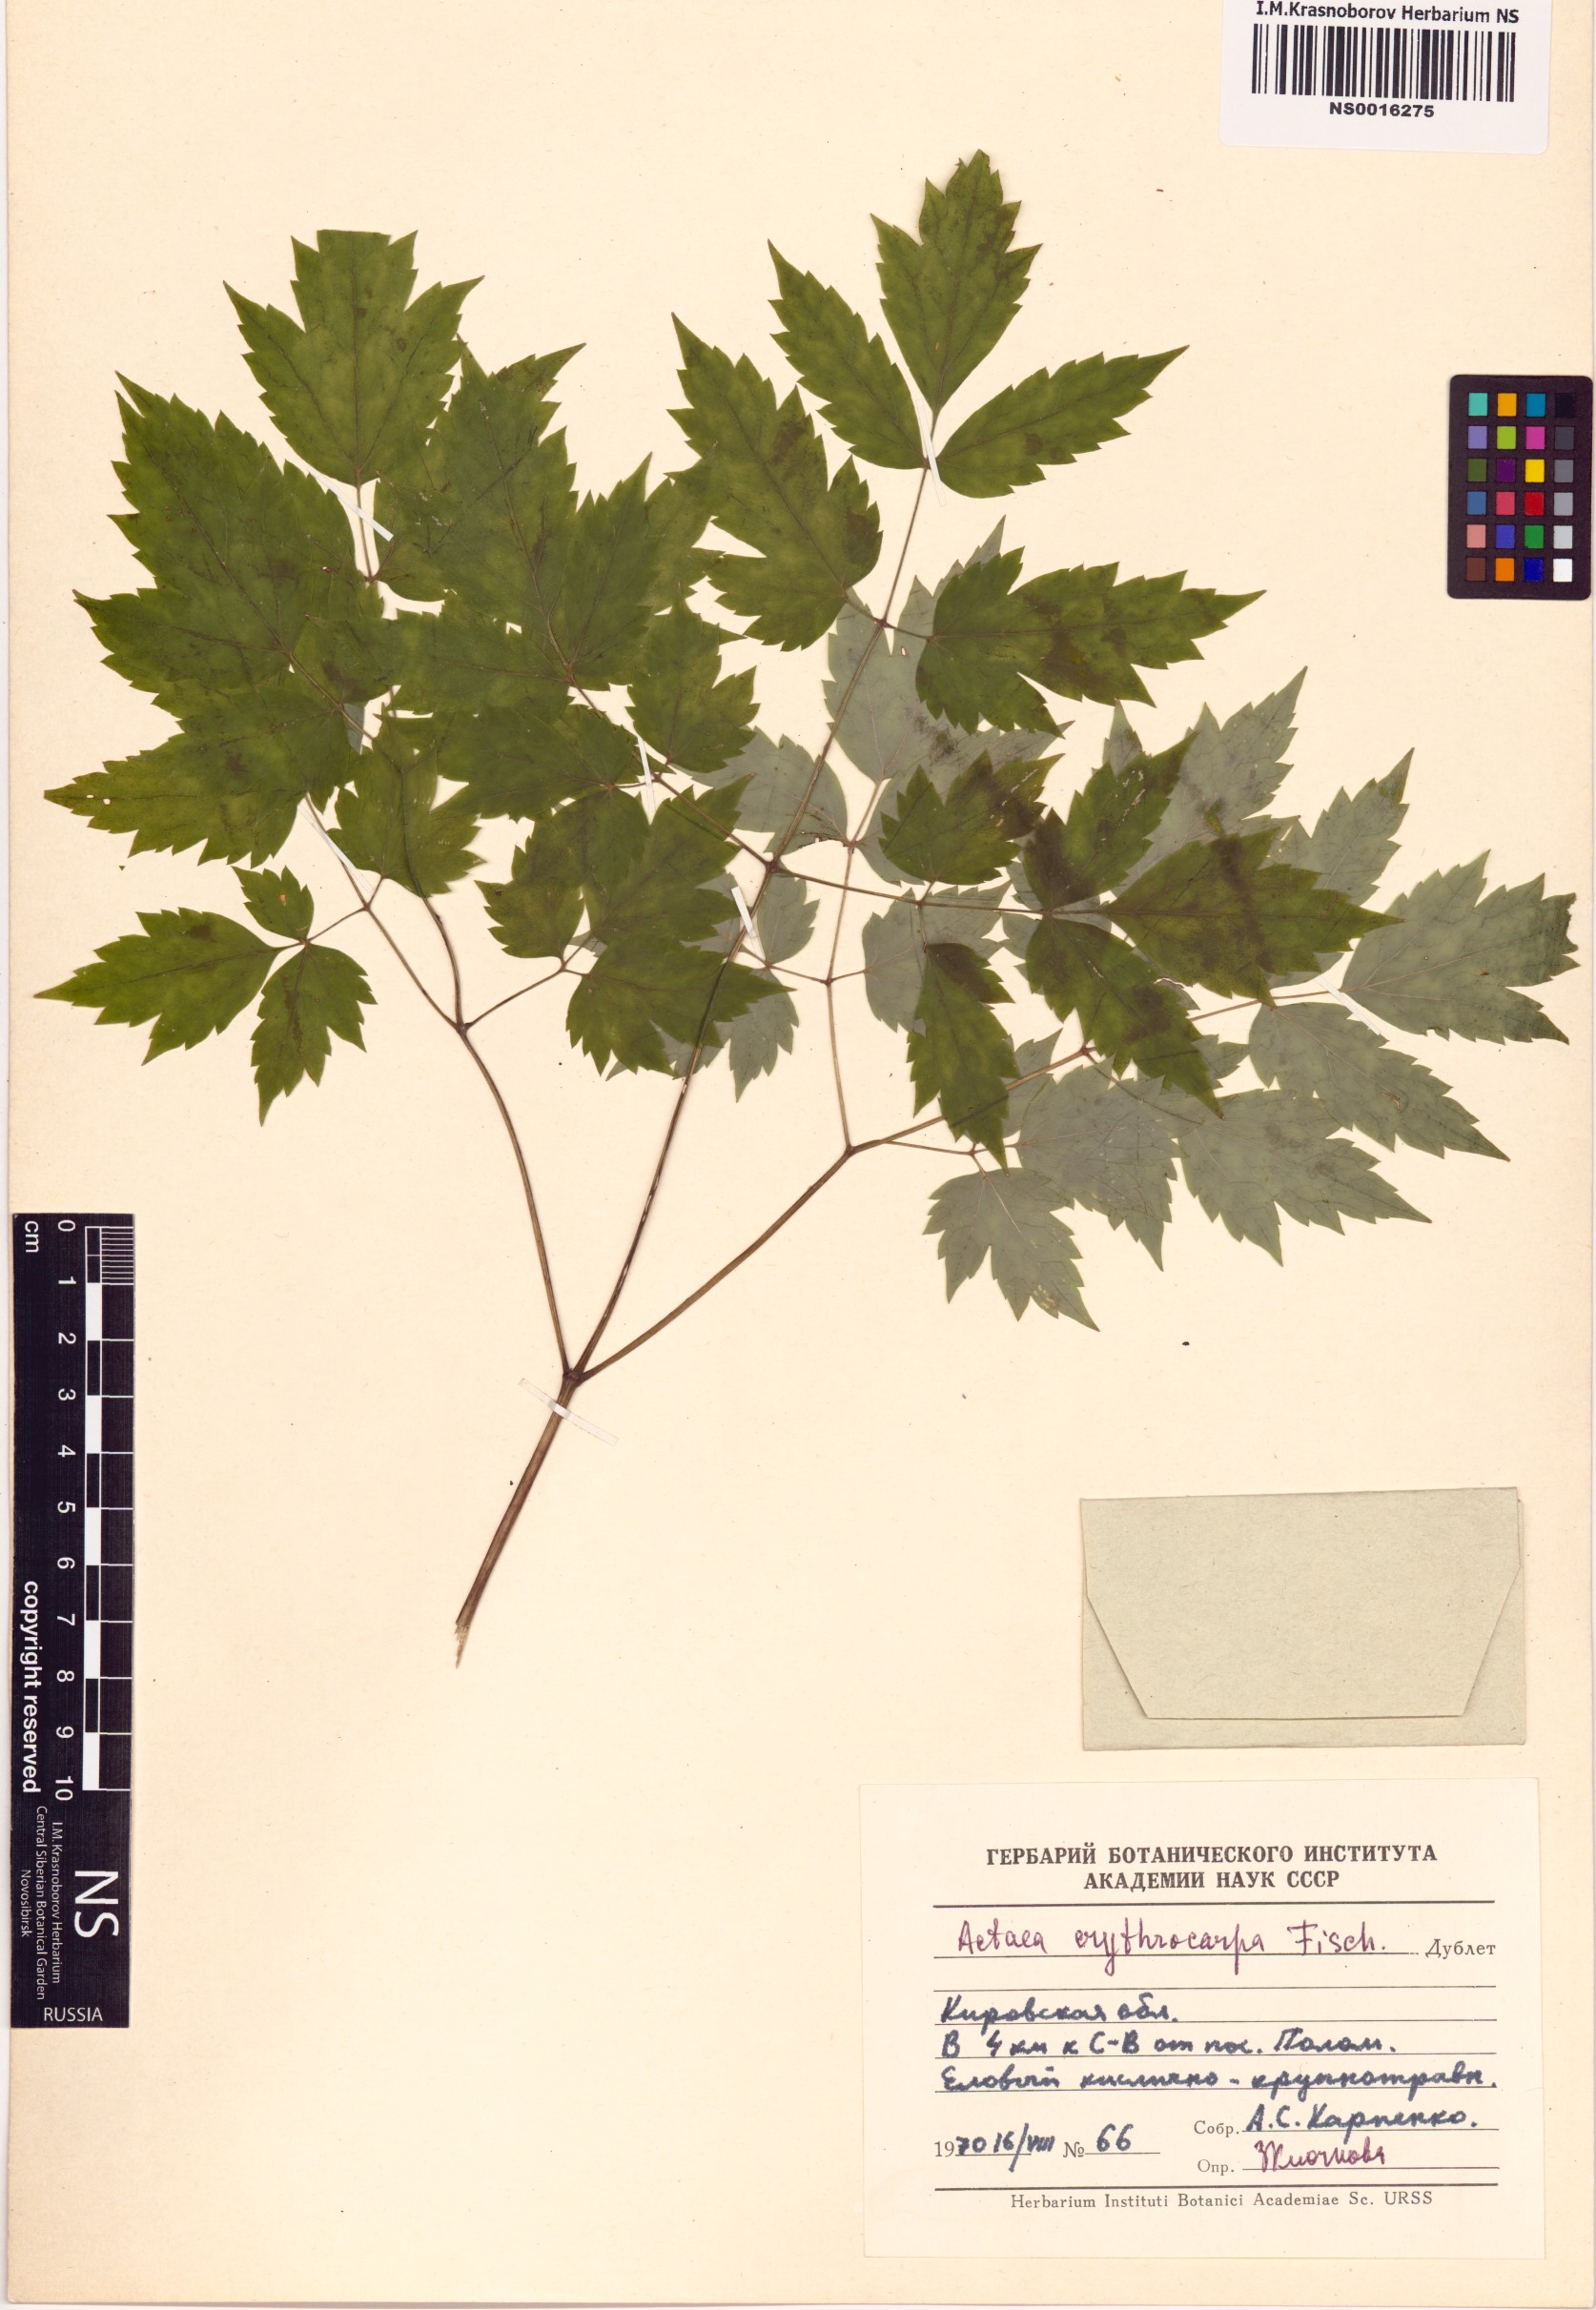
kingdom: Plantae
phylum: Tracheophyta
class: Magnoliopsida
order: Ranunculales
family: Ranunculaceae
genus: Actaea
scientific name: Actaea erythrocarpa
